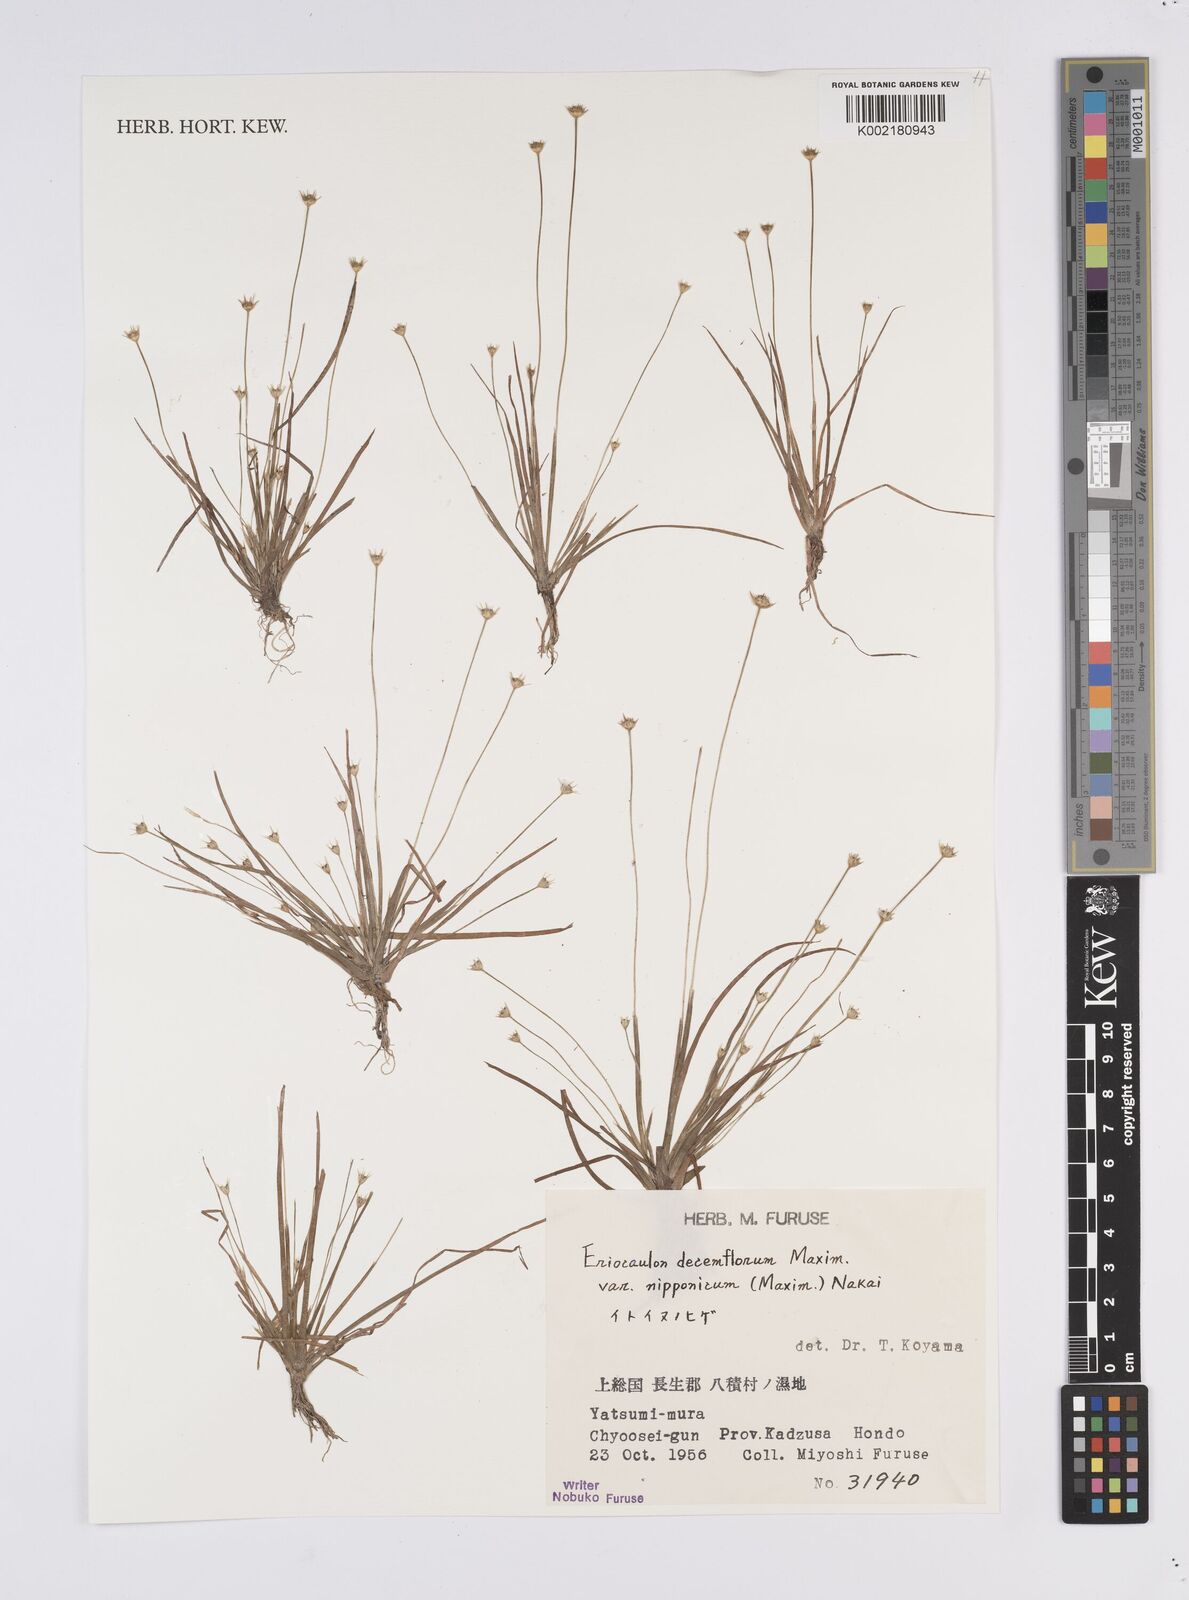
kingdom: Plantae
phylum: Tracheophyta
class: Liliopsida
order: Poales
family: Eriocaulaceae
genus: Eriocaulon
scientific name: Eriocaulon decemflorum
